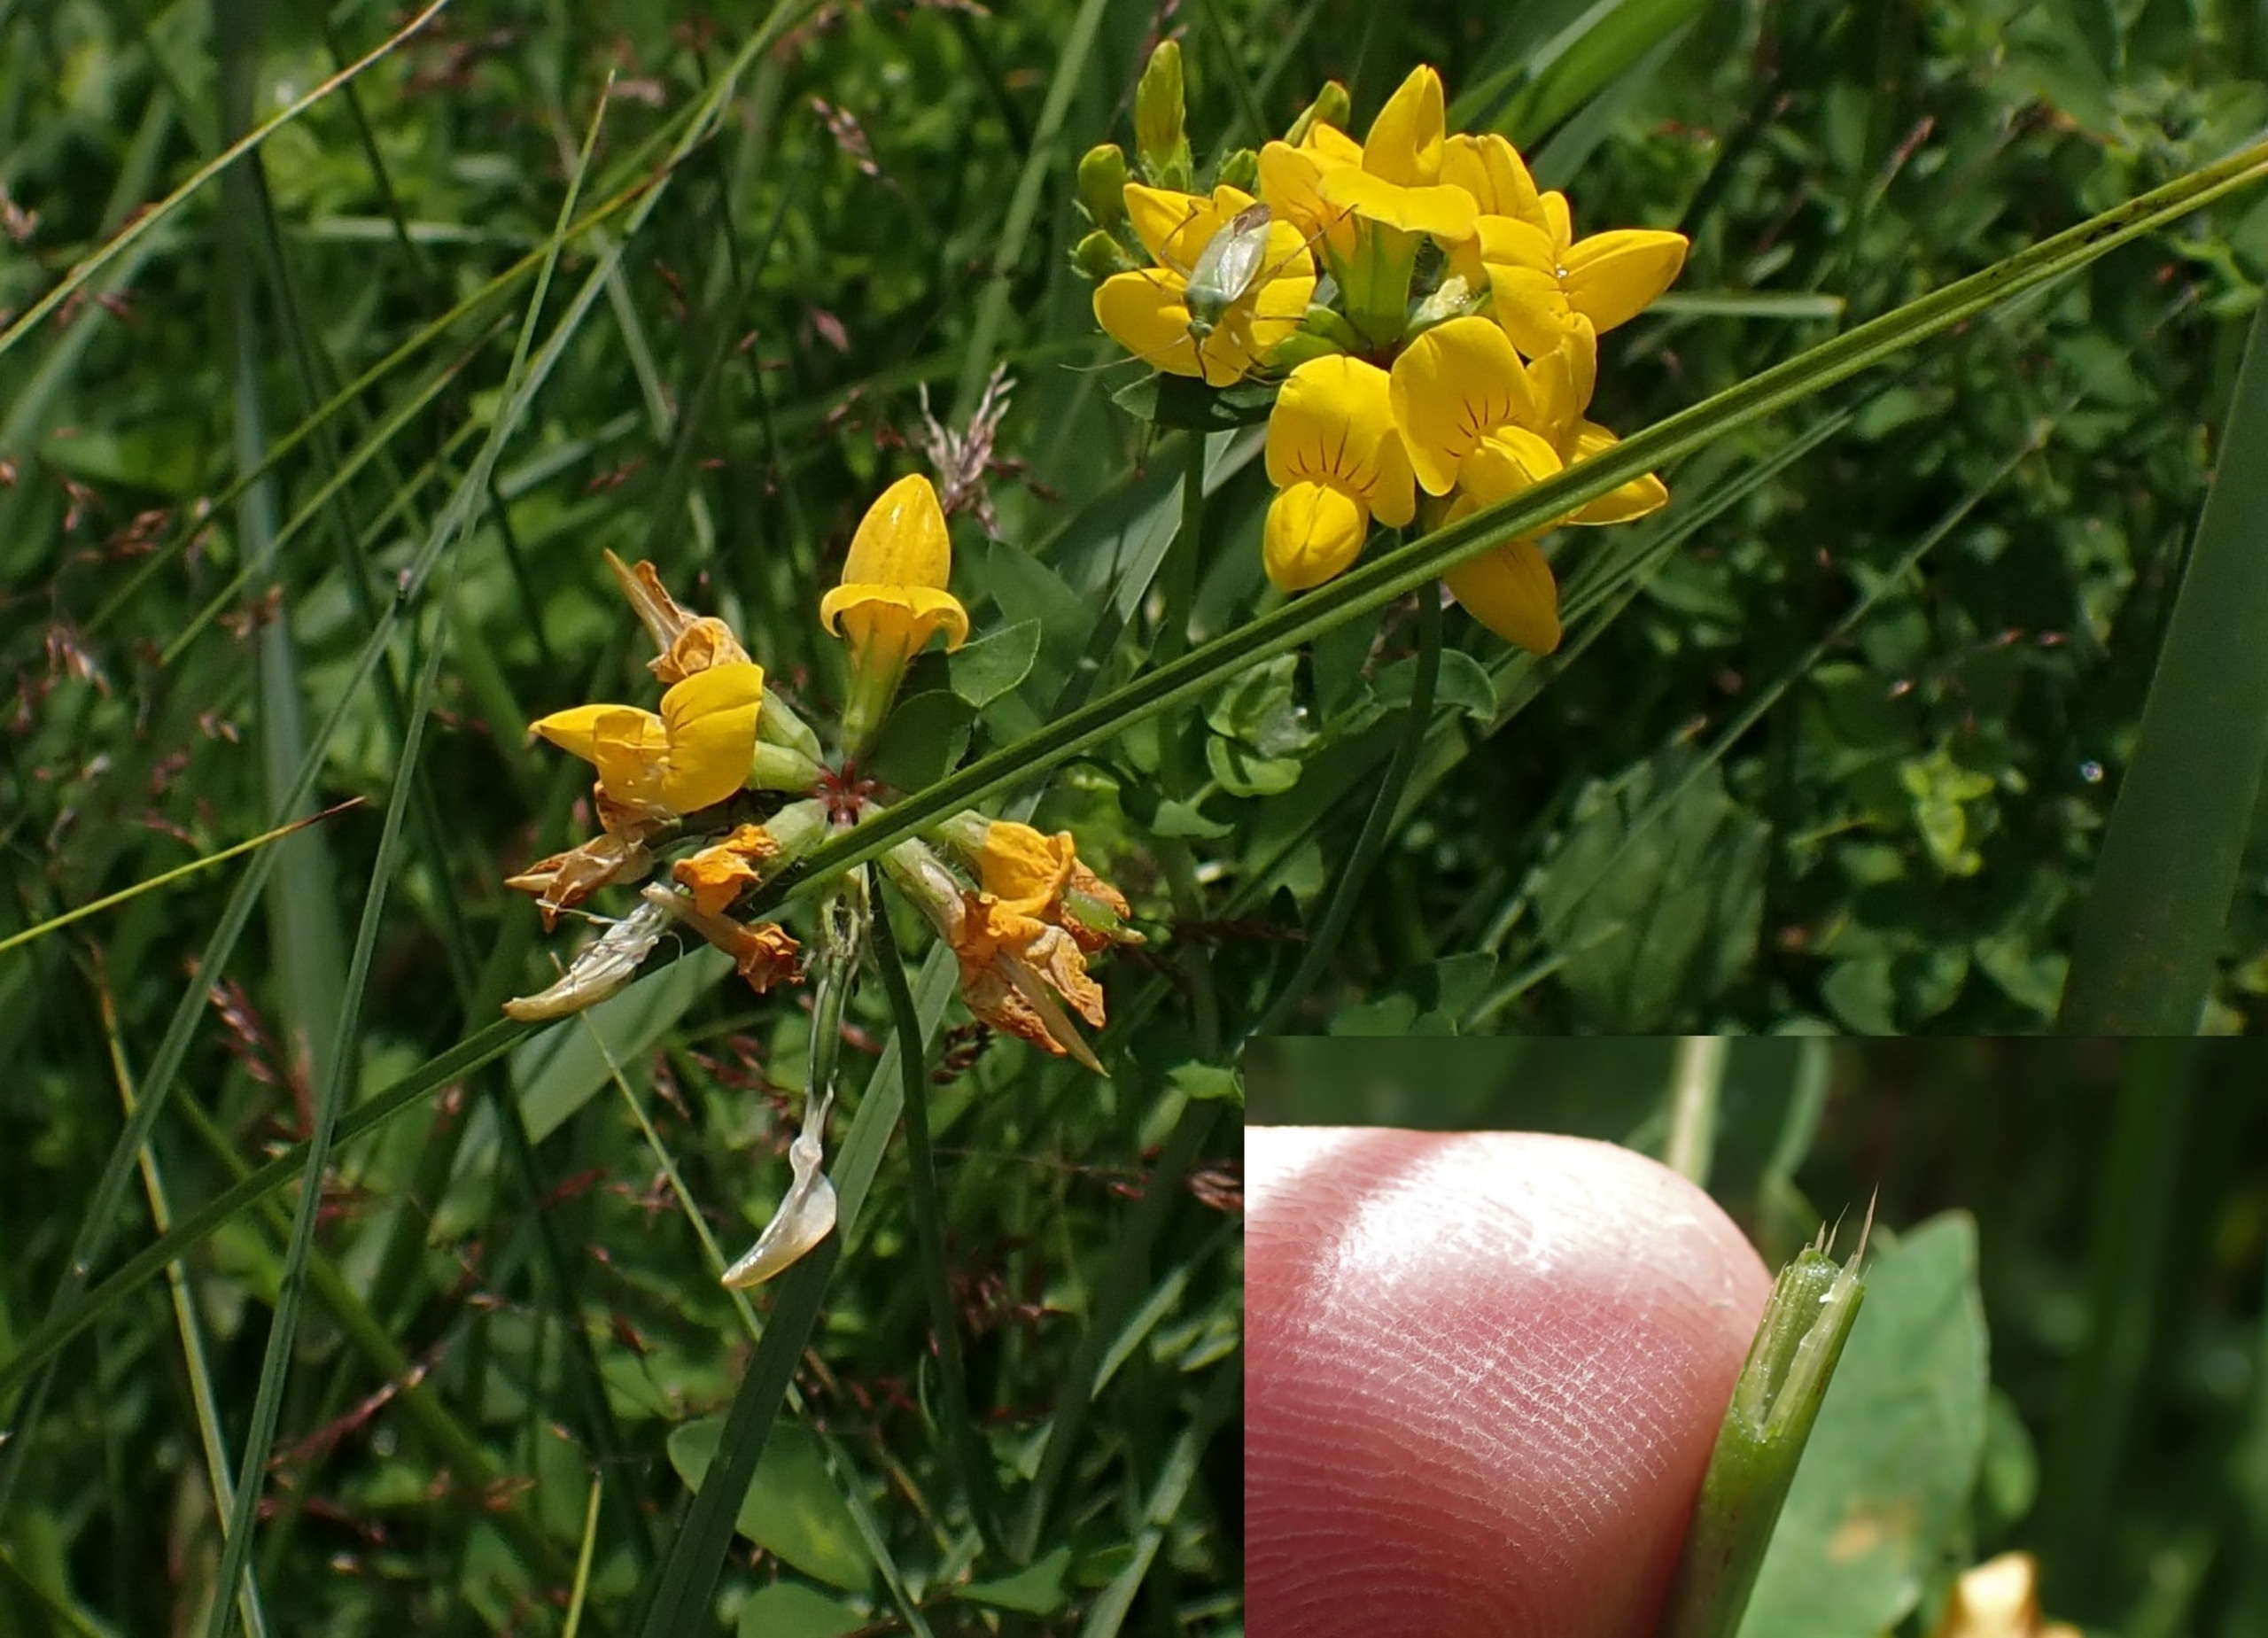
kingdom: Plantae
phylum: Tracheophyta
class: Magnoliopsida
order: Fabales
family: Fabaceae
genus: Lotus
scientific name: Lotus pedunculatus
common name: Sump-kællingetand
